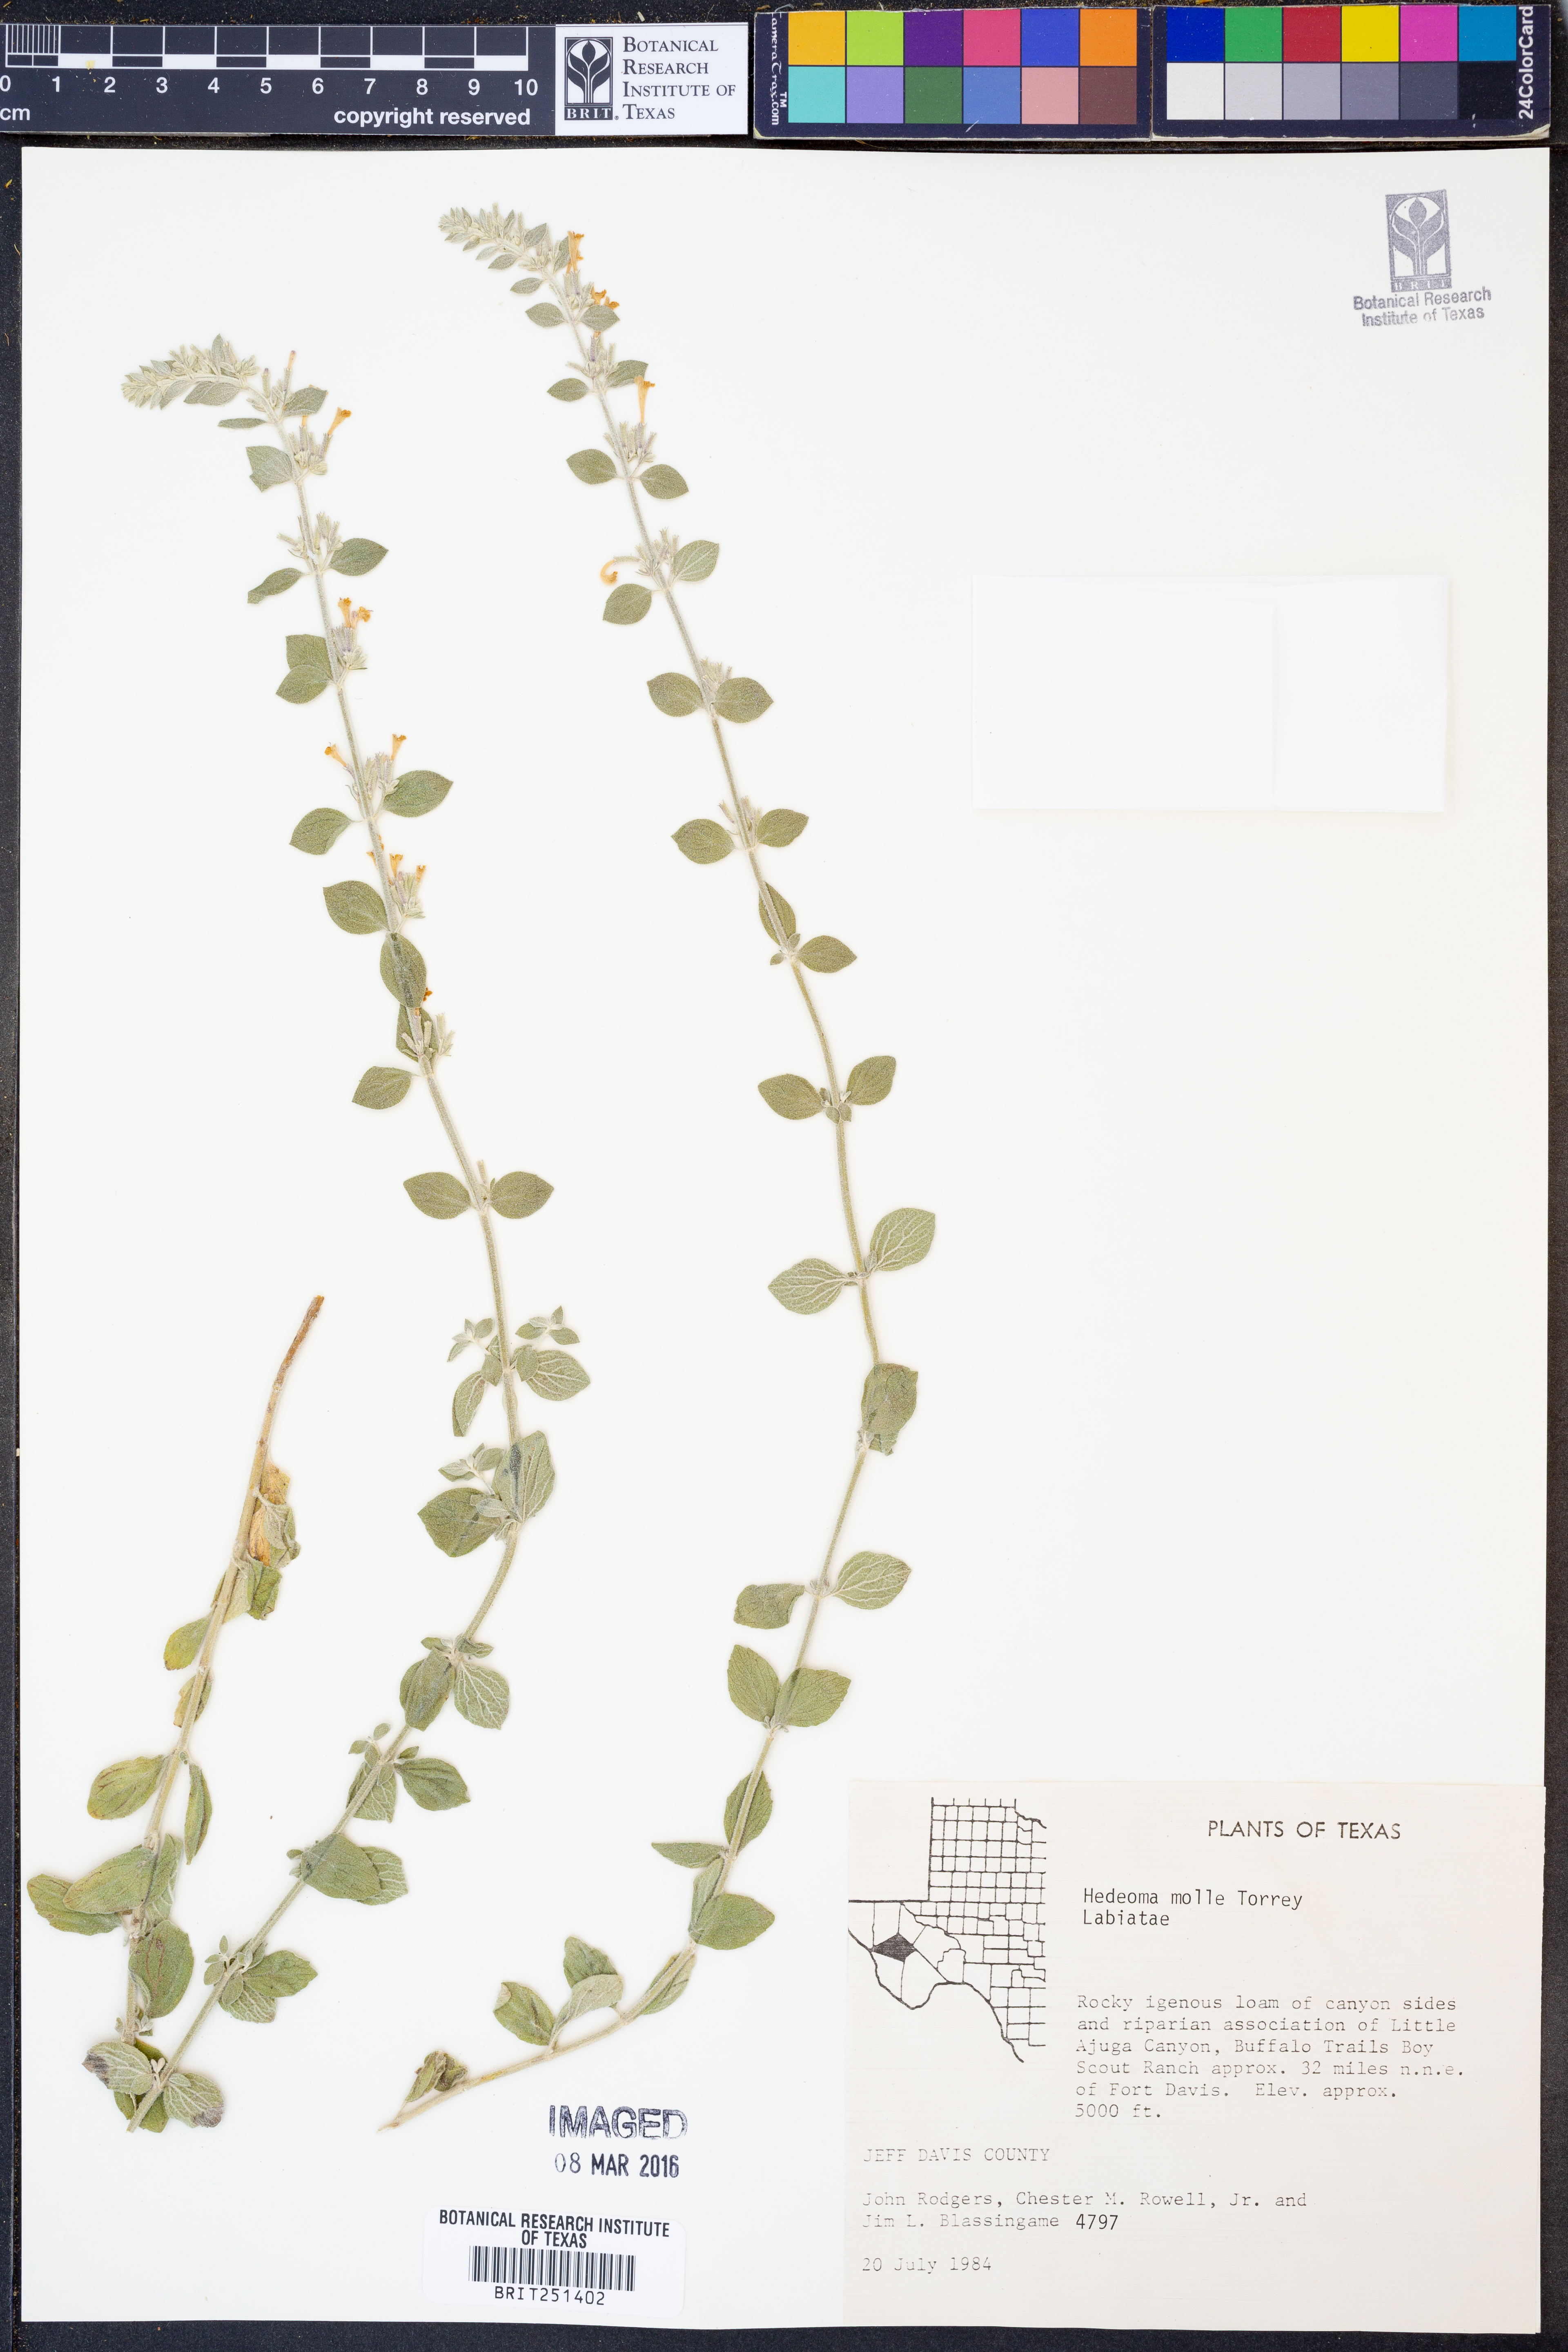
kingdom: Plantae
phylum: Tracheophyta
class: Magnoliopsida
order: Lamiales
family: Lamiaceae
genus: Hedeoma
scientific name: Hedeoma mollis
